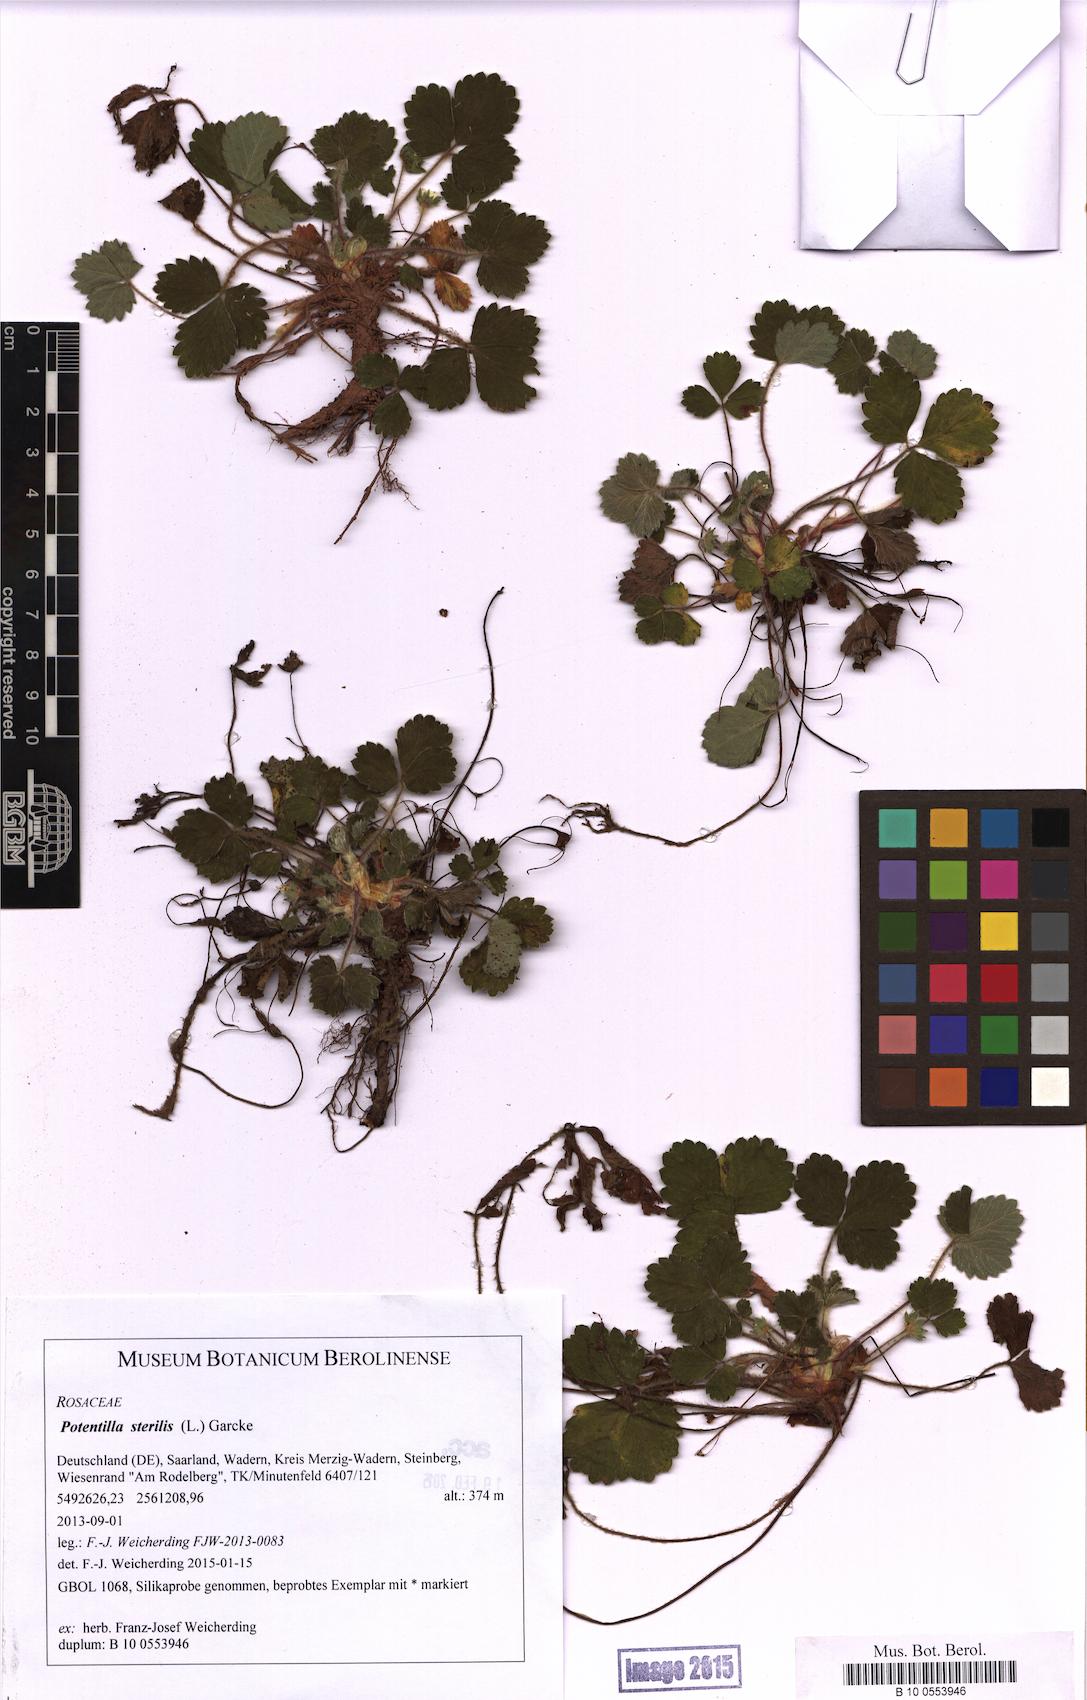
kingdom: Plantae
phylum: Tracheophyta
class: Magnoliopsida
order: Rosales
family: Rosaceae
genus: Potentilla
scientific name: Potentilla sterilis
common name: Barren strawberry
